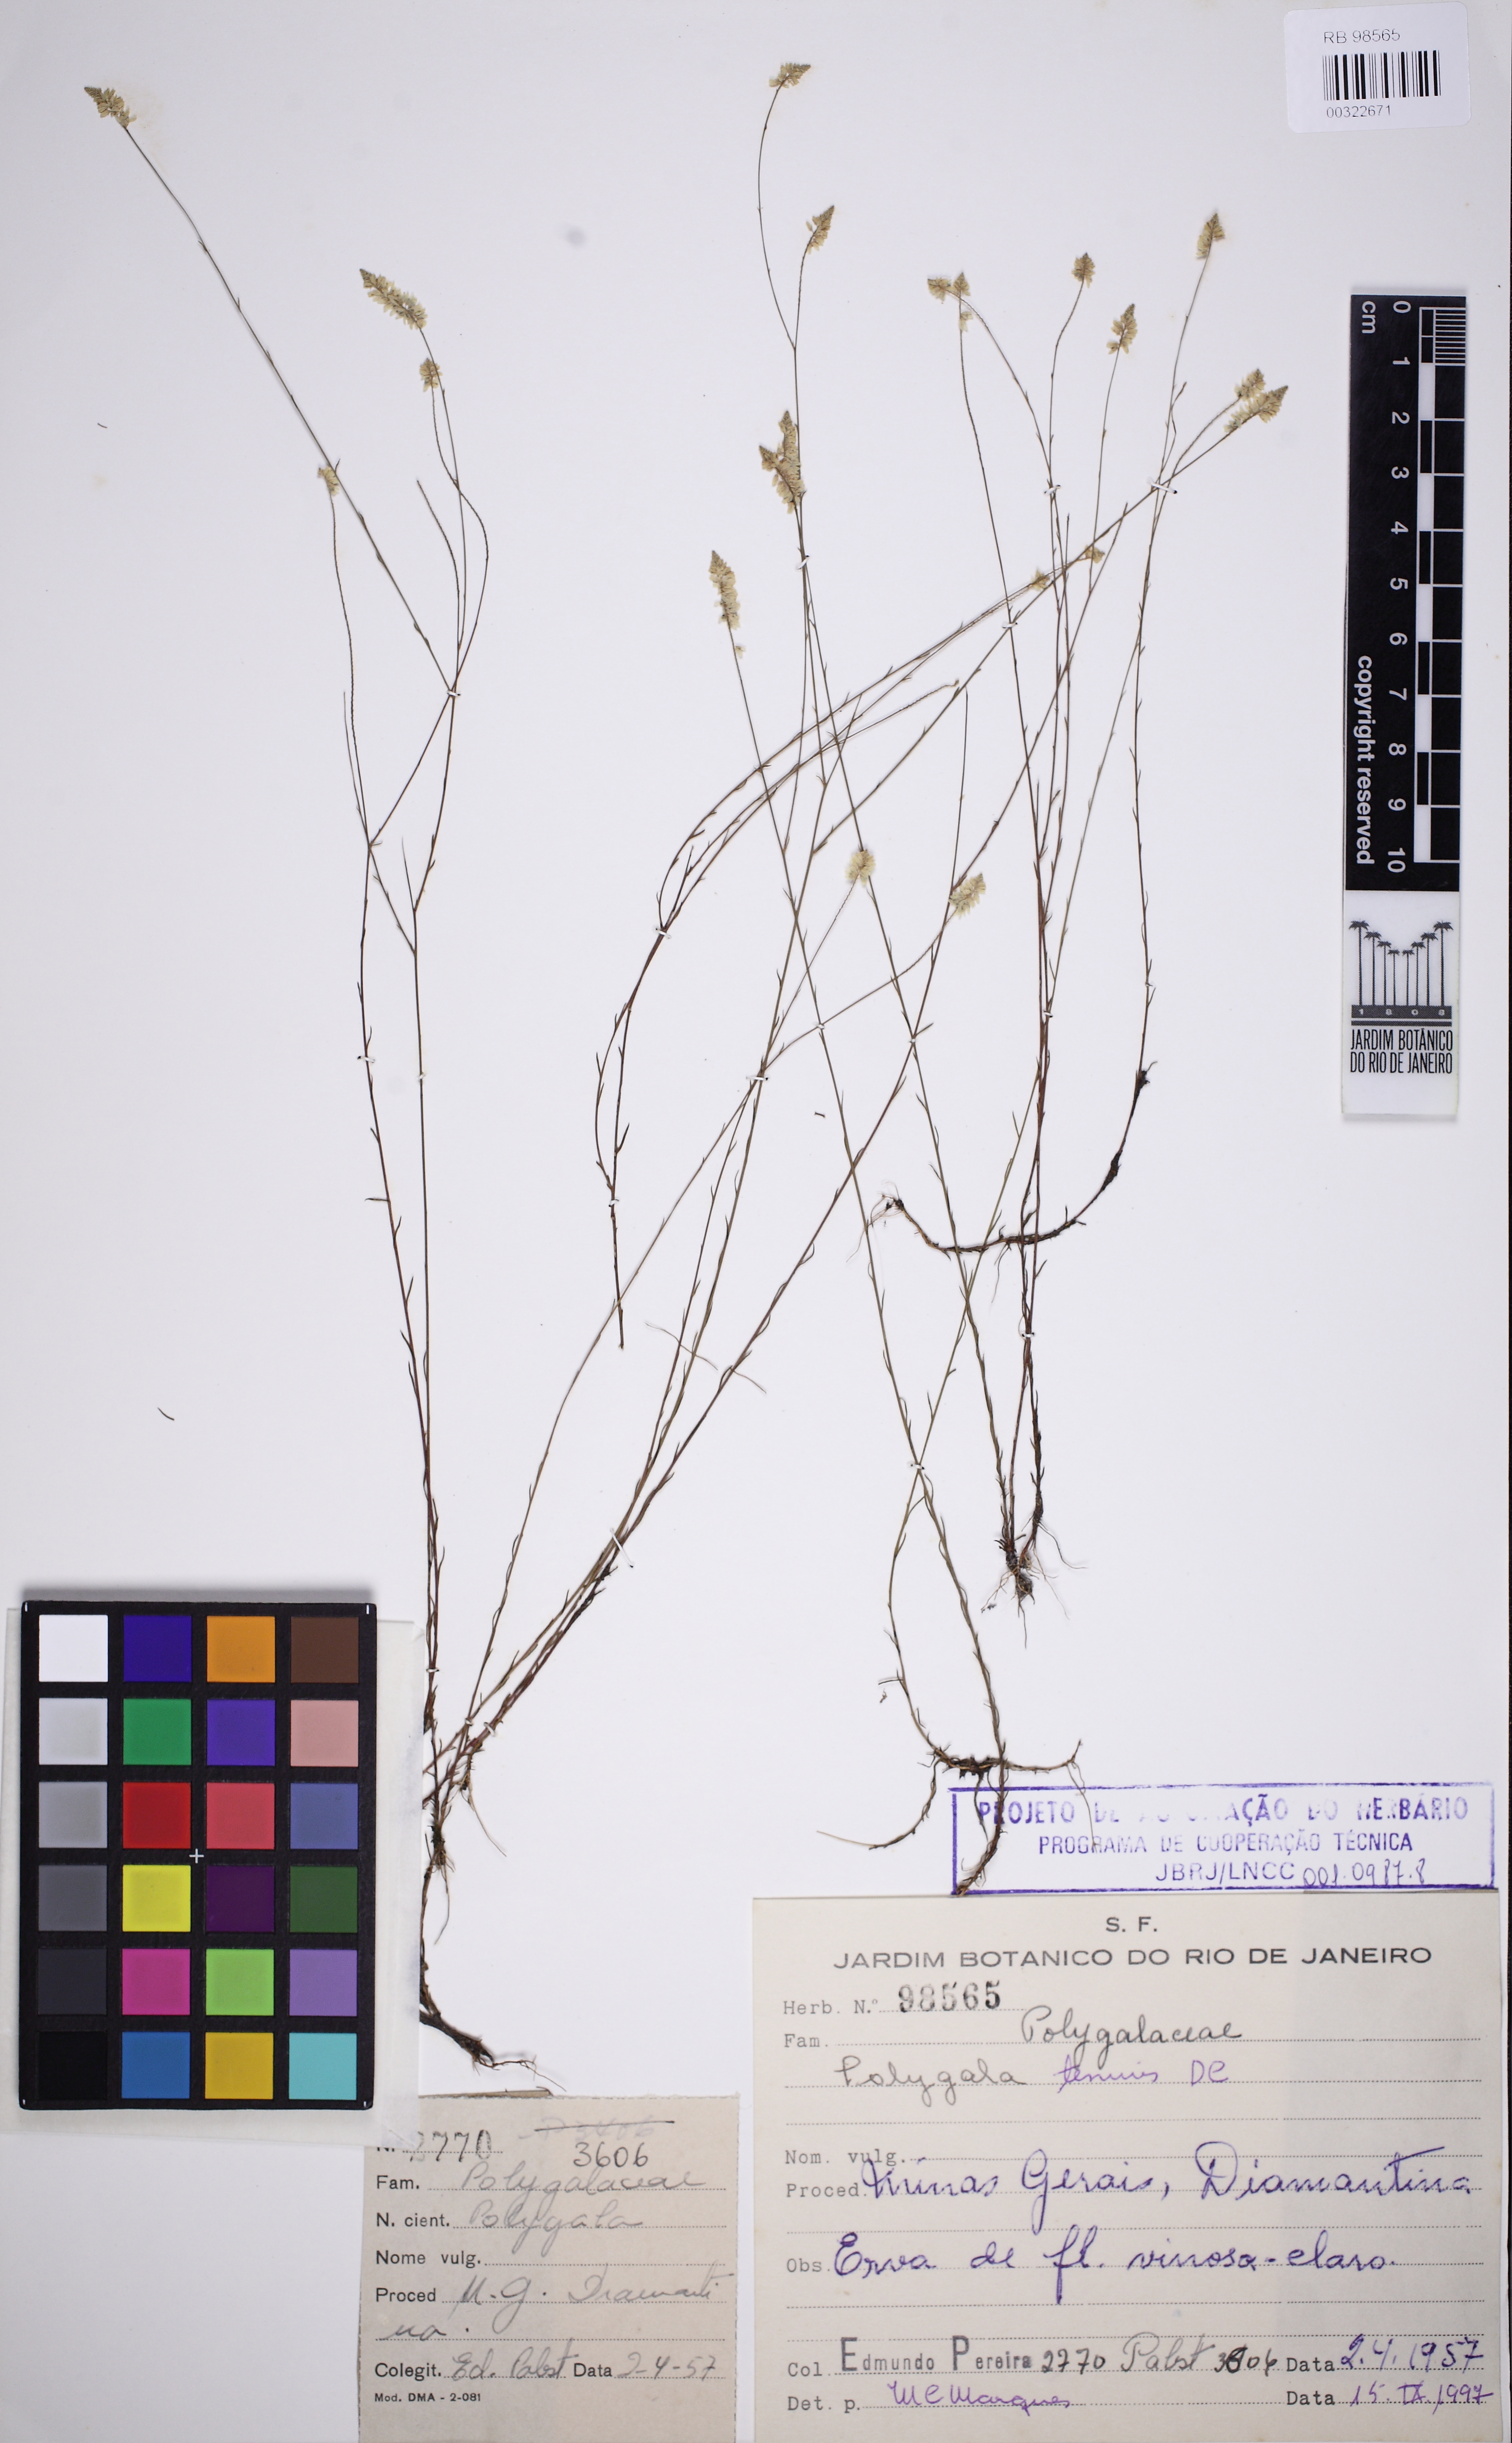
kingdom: Plantae
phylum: Tracheophyta
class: Magnoliopsida
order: Fabales
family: Polygalaceae
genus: Polygala
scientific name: Polygala tenuis
